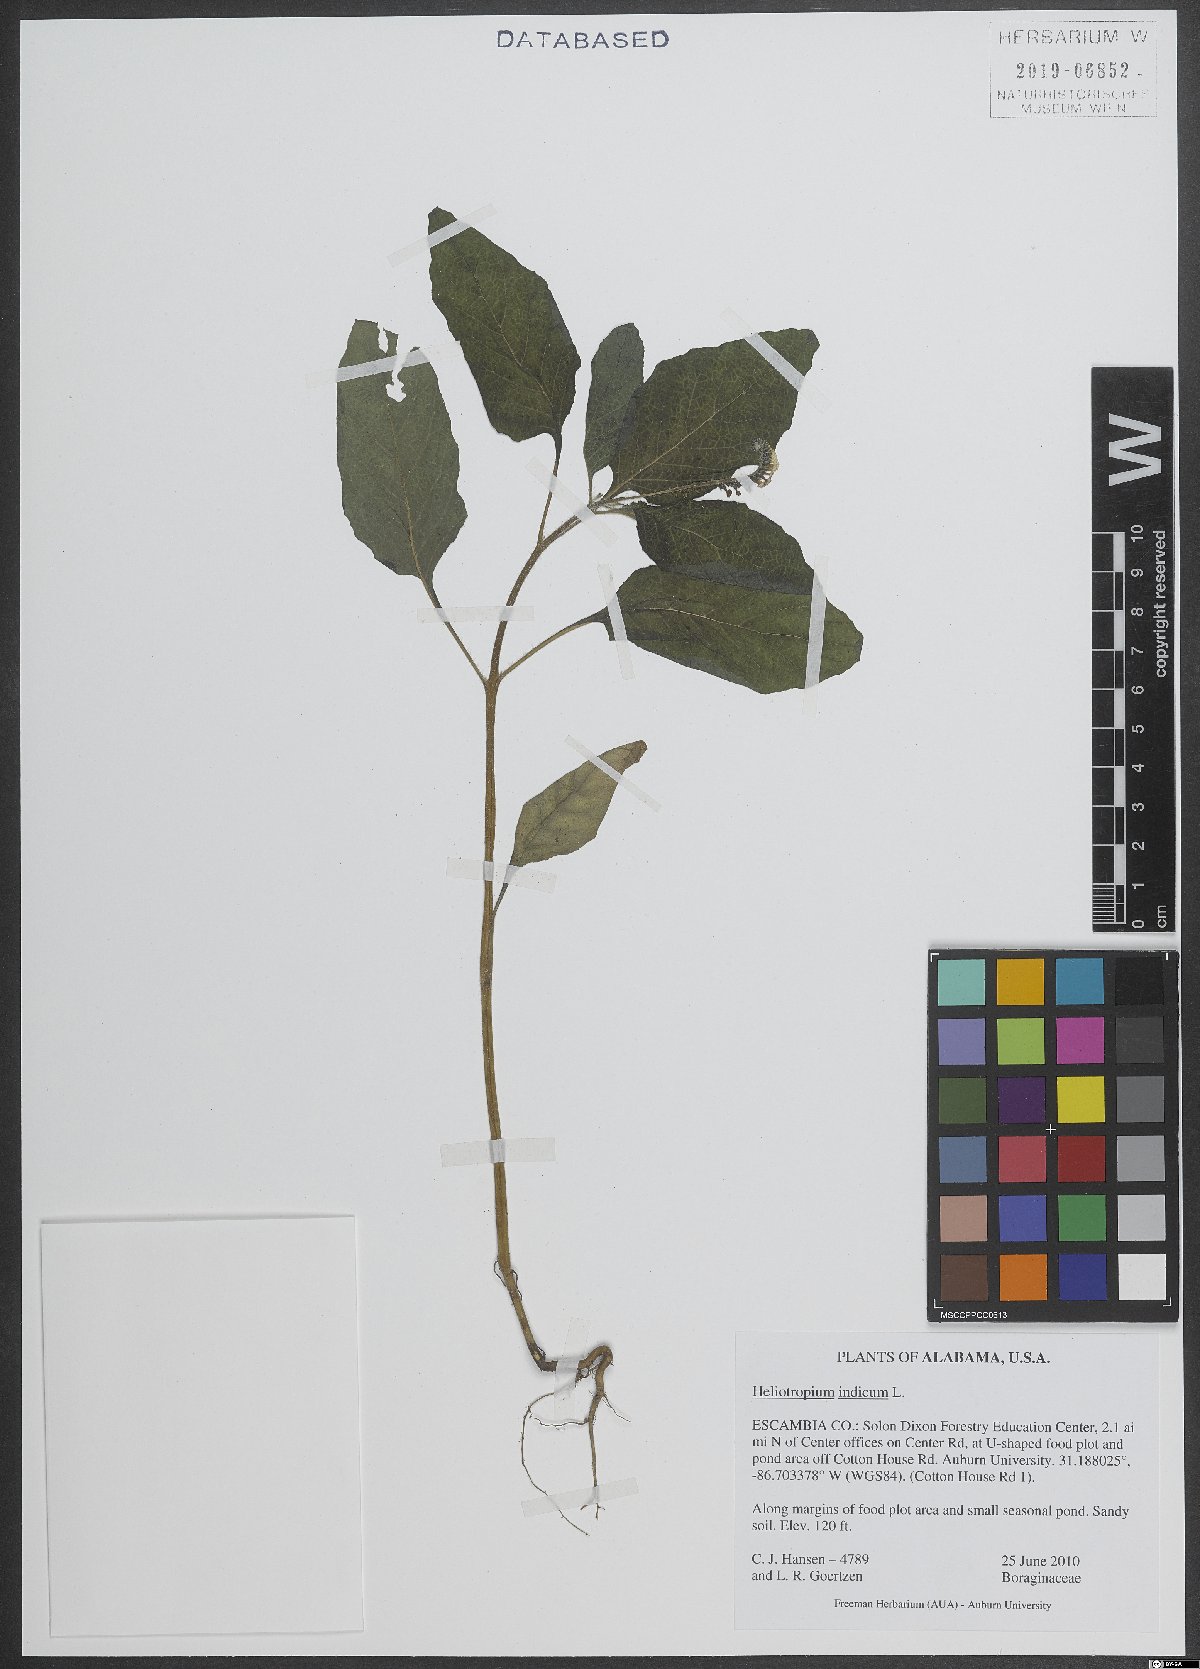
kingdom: Plantae
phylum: Tracheophyta
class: Magnoliopsida
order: Boraginales
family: Heliotropiaceae
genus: Heliotropium
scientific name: Heliotropium indicum
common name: Indian heliotrope
